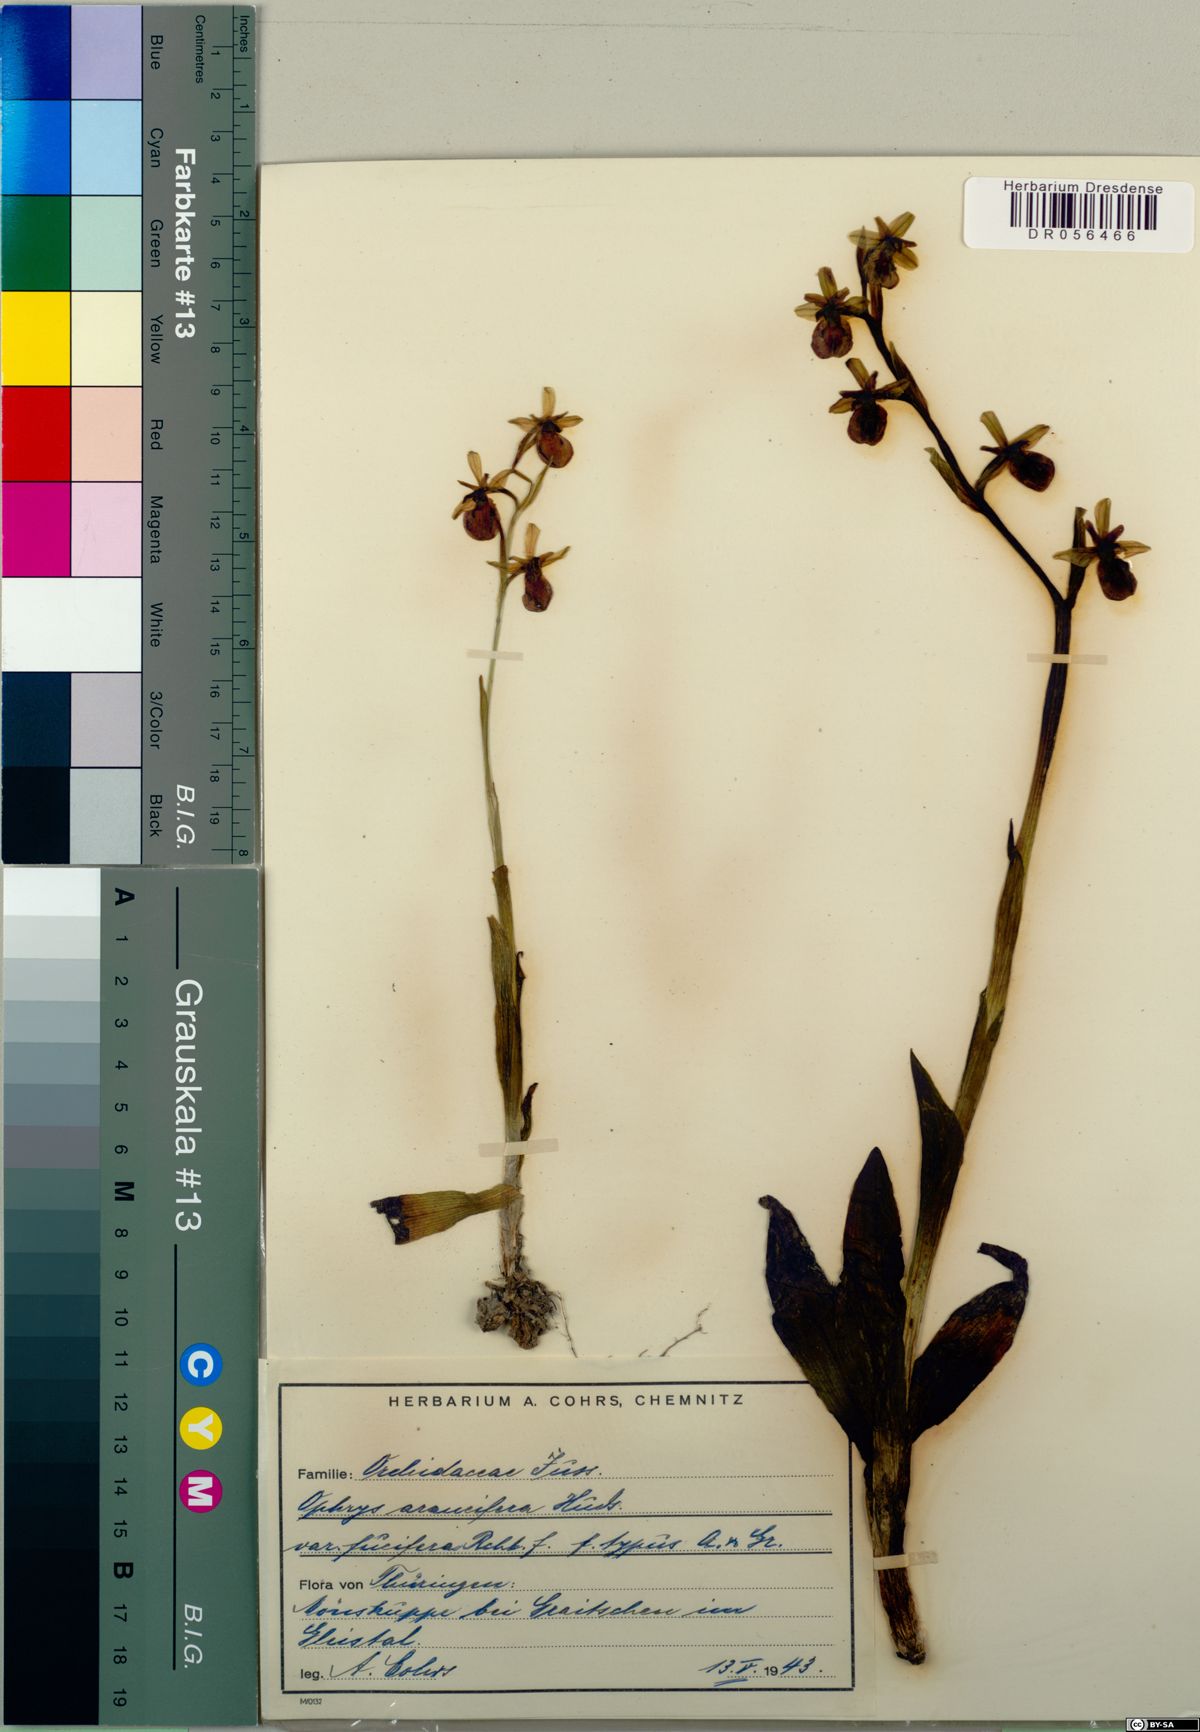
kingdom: Plantae
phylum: Tracheophyta
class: Liliopsida
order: Asparagales
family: Orchidaceae
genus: Ophrys
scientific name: Ophrys sphegodes
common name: Early spider-orchid
